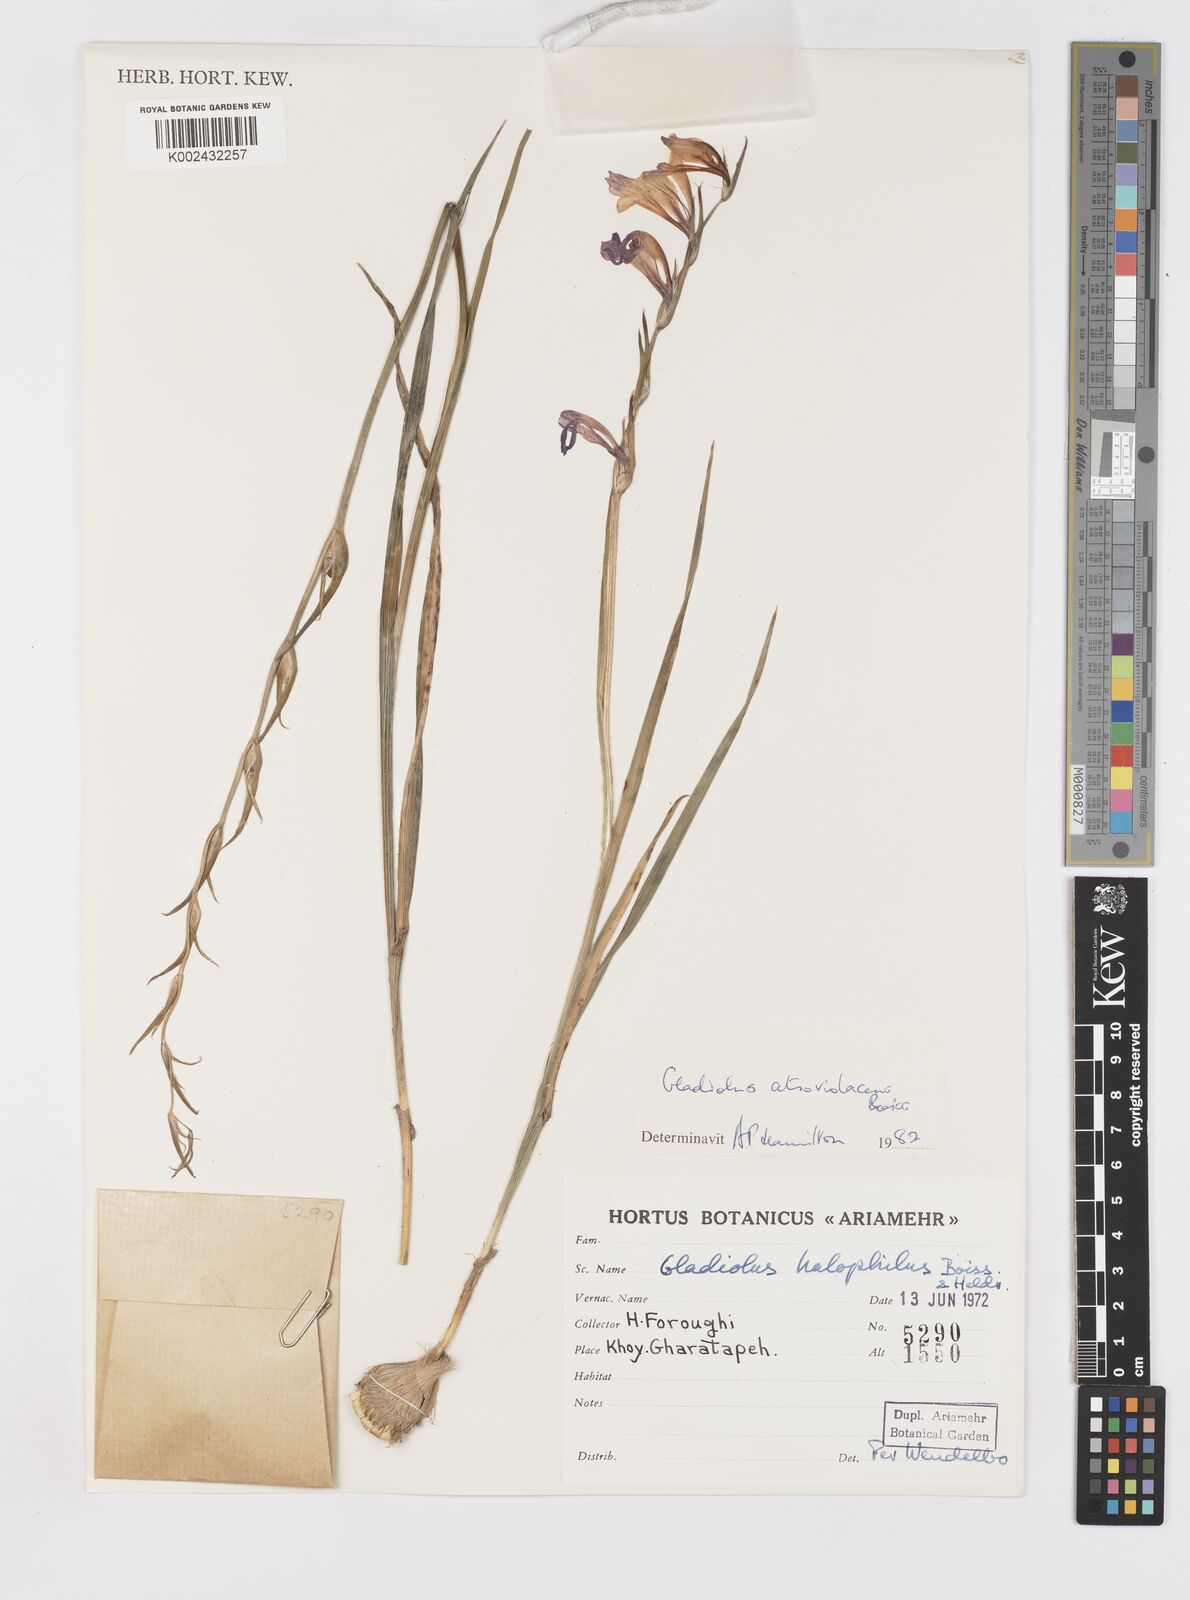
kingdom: Plantae
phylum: Tracheophyta
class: Liliopsida
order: Asparagales
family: Iridaceae
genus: Gladiolus
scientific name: Gladiolus atroviolaceus
